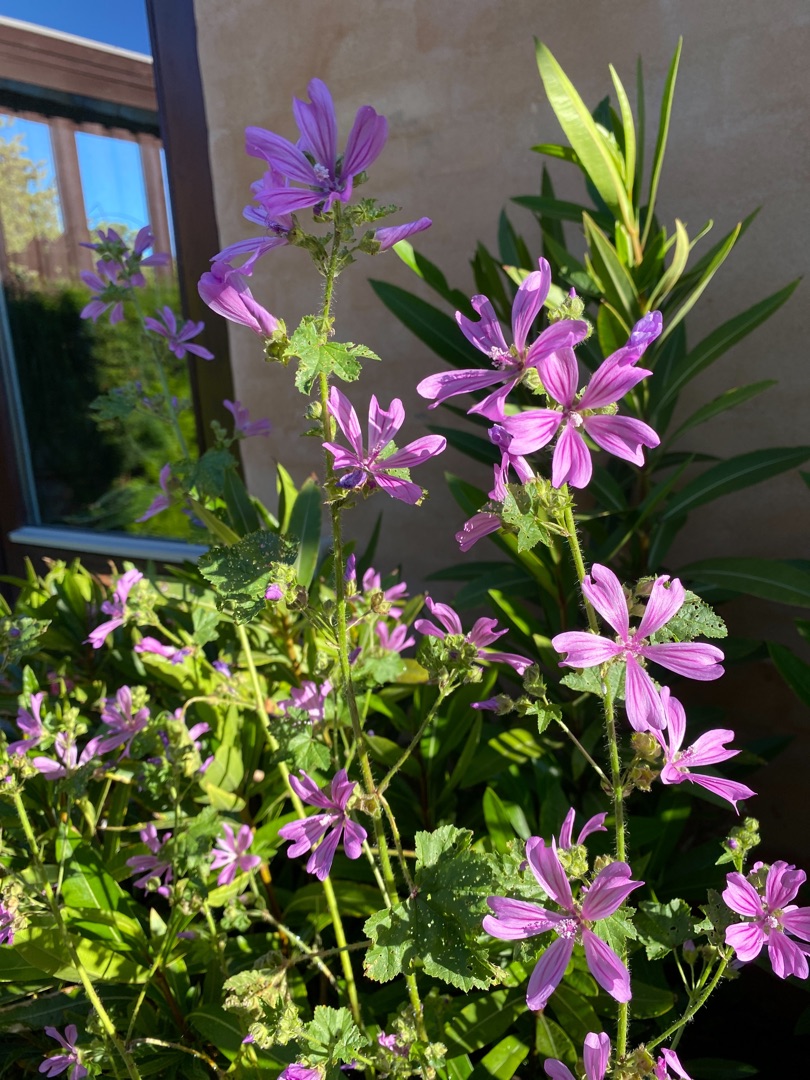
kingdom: Plantae
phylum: Tracheophyta
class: Magnoliopsida
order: Malvales
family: Malvaceae
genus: Malva
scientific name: Malva sylvestris
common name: Almindelig katost
